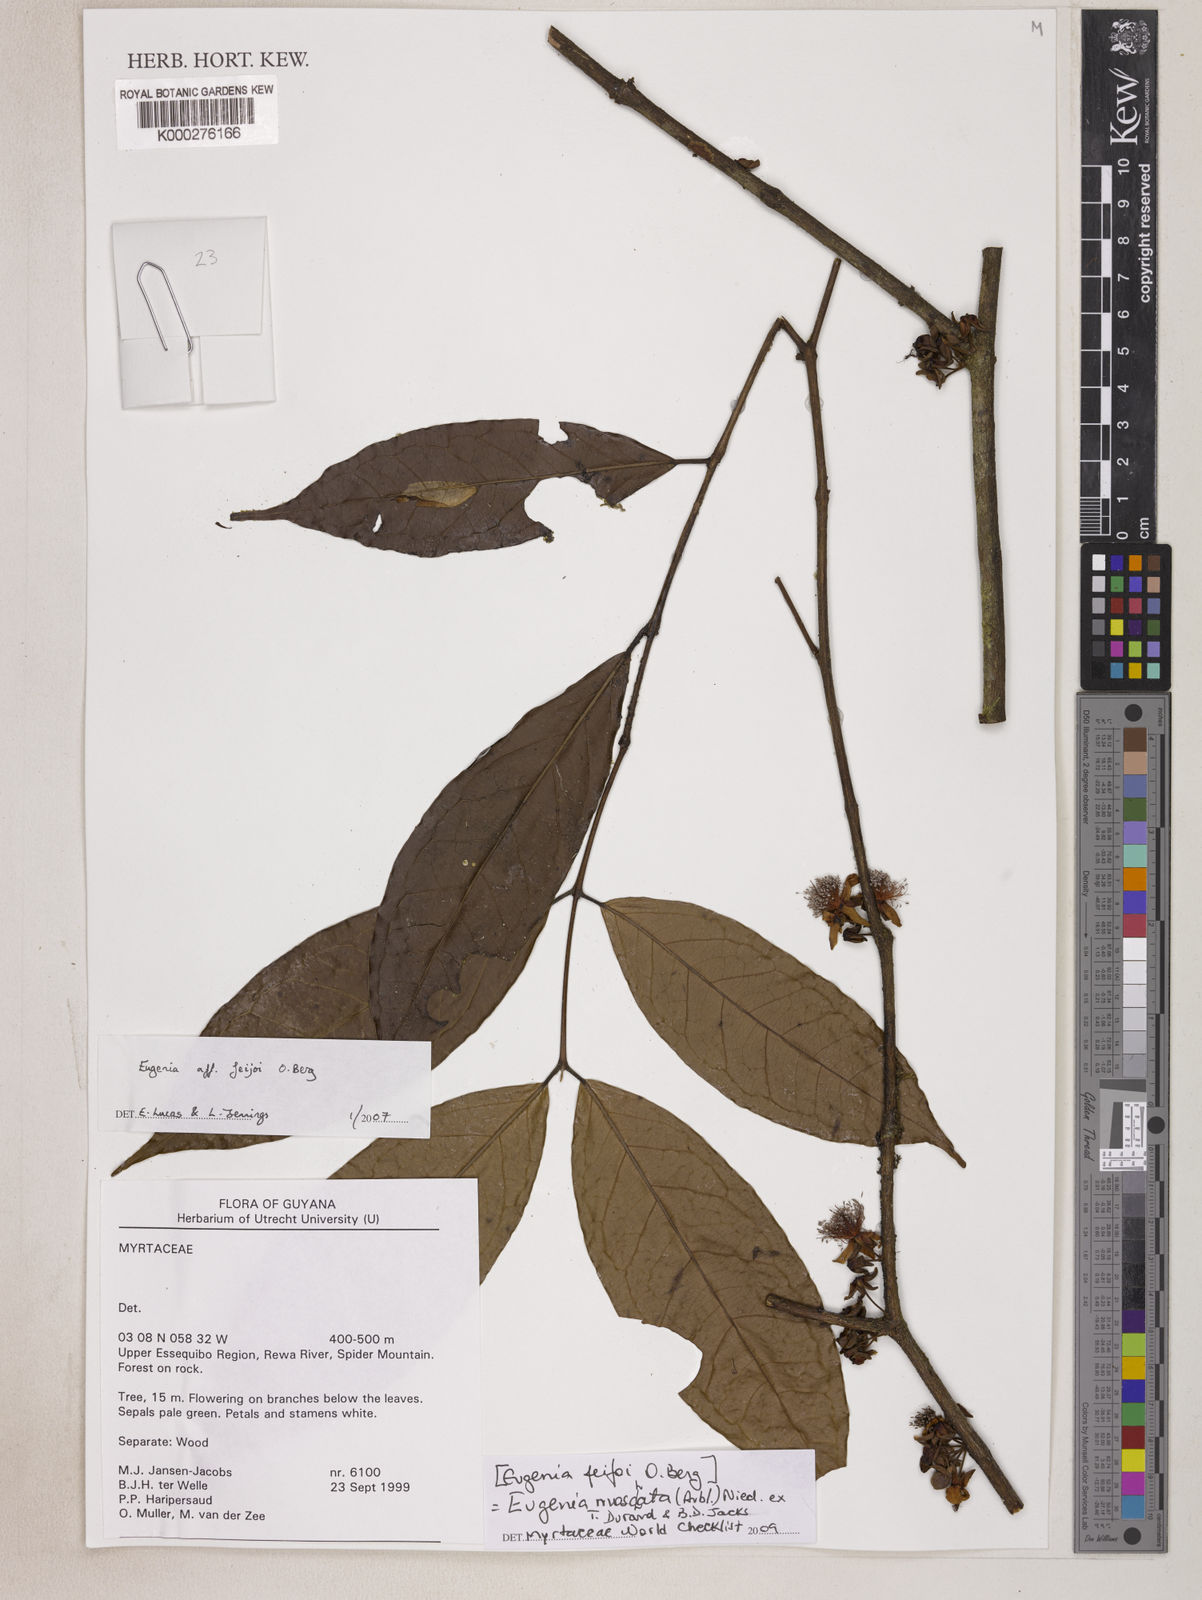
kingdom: Plantae
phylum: Tracheophyta
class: Magnoliopsida
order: Myrtales
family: Myrtaceae
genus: Eugenia
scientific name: Eugenia feijoi
